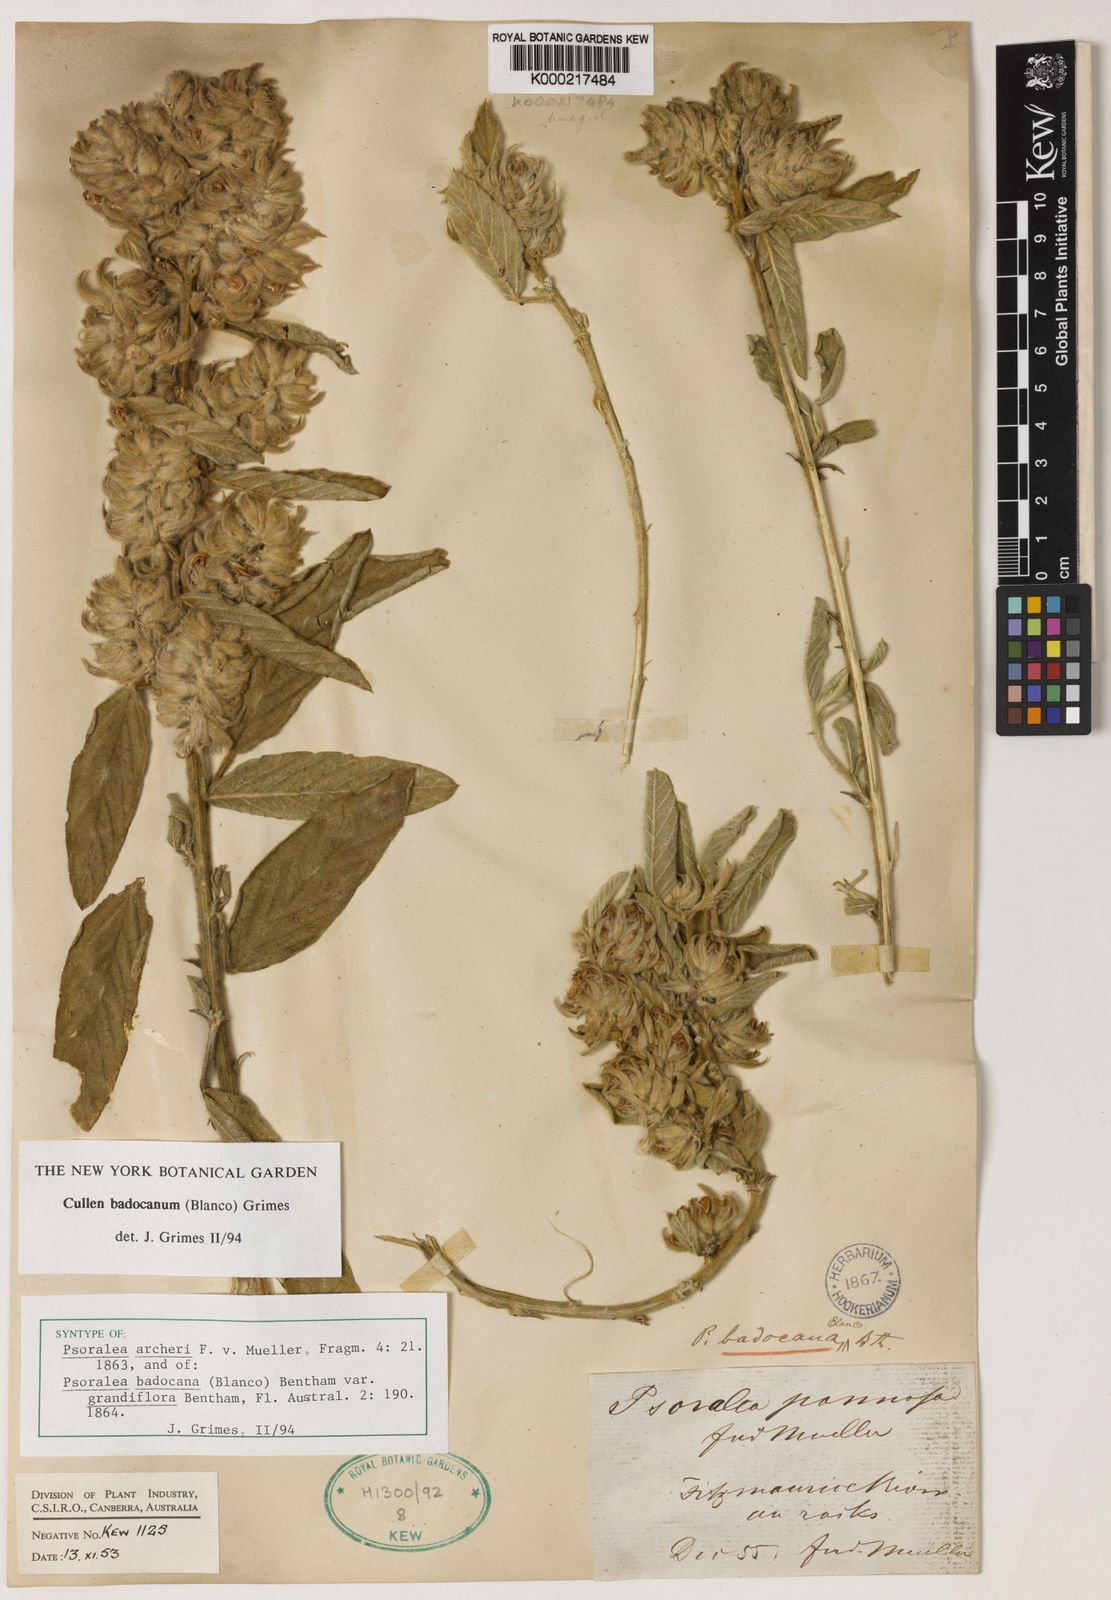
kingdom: Plantae
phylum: Tracheophyta
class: Magnoliopsida
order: Fabales
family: Fabaceae
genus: Cullen
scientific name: Cullen
